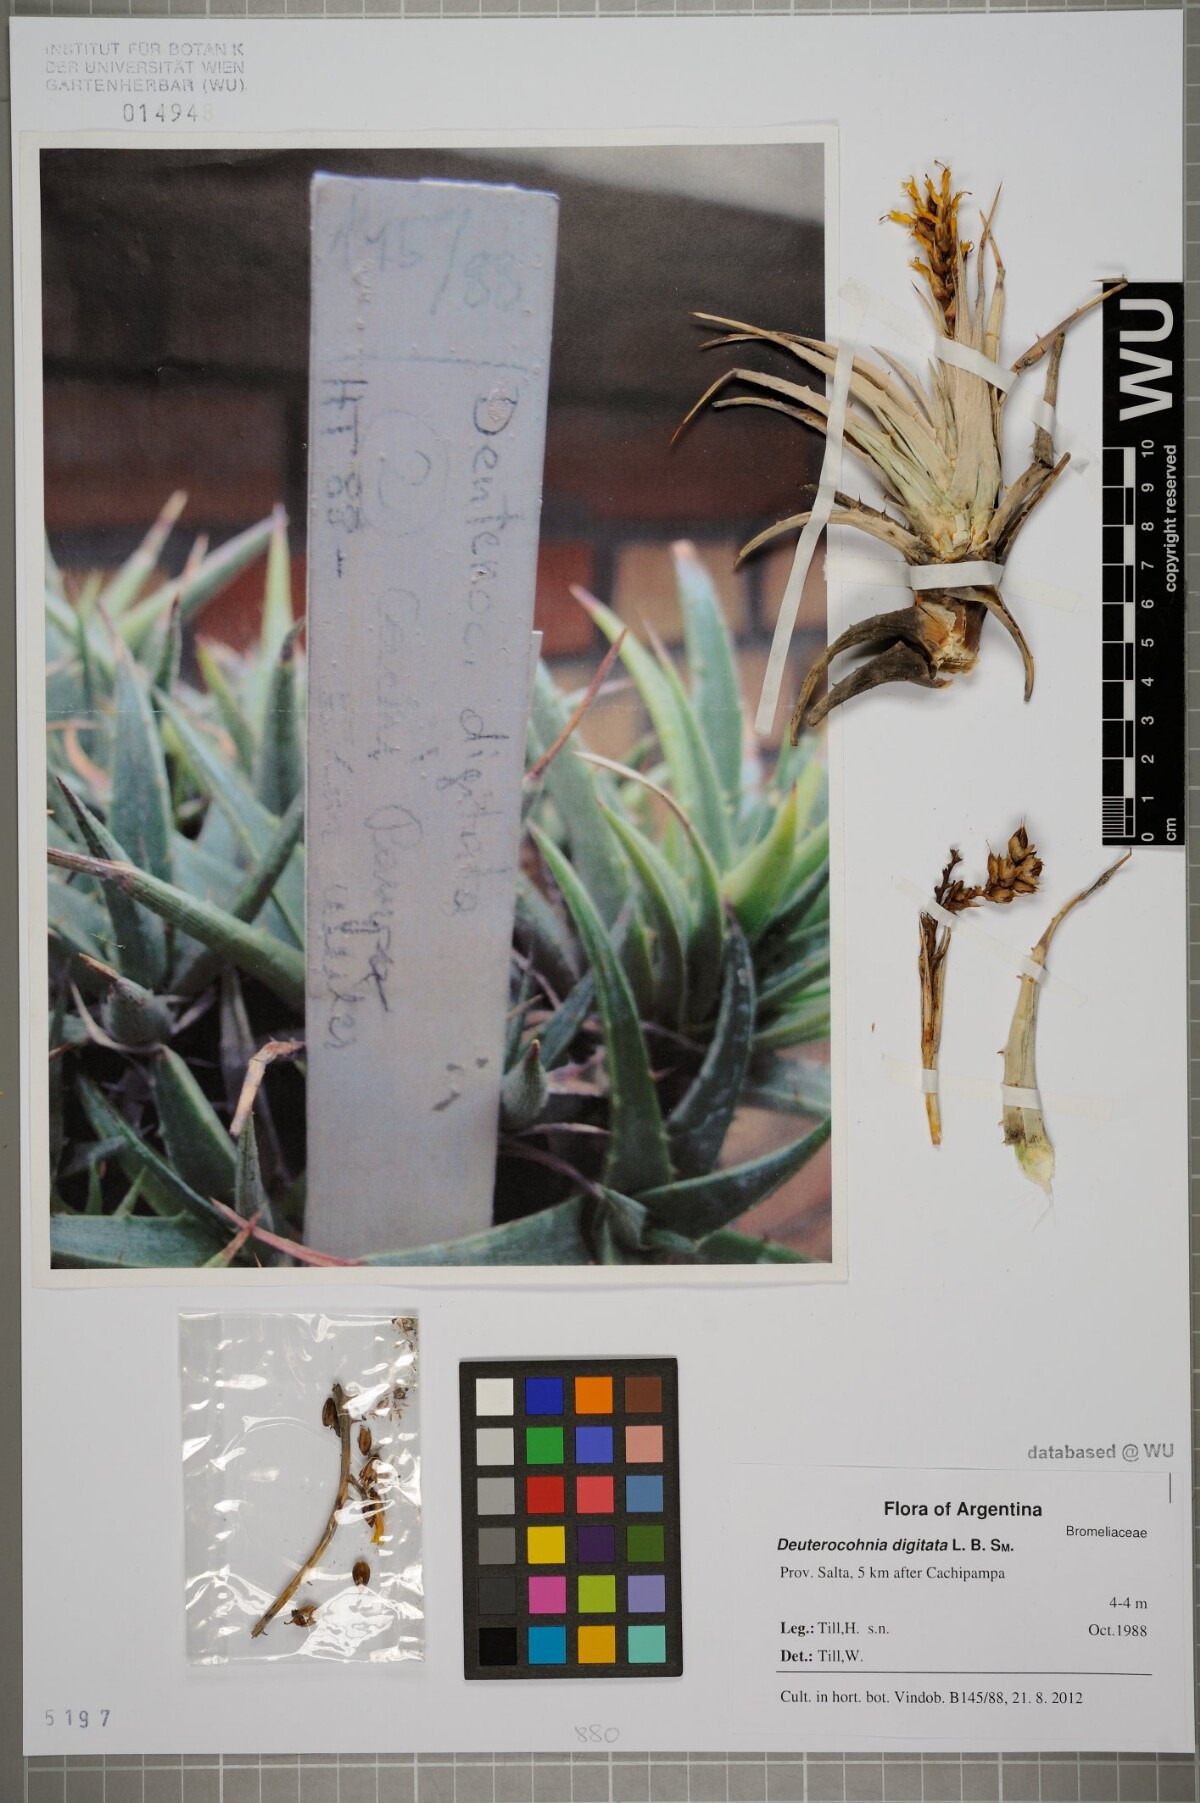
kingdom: Plantae
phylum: Tracheophyta
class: Liliopsida
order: Poales
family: Bromeliaceae
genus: Deuterocohnia
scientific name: Deuterocohnia digitata
